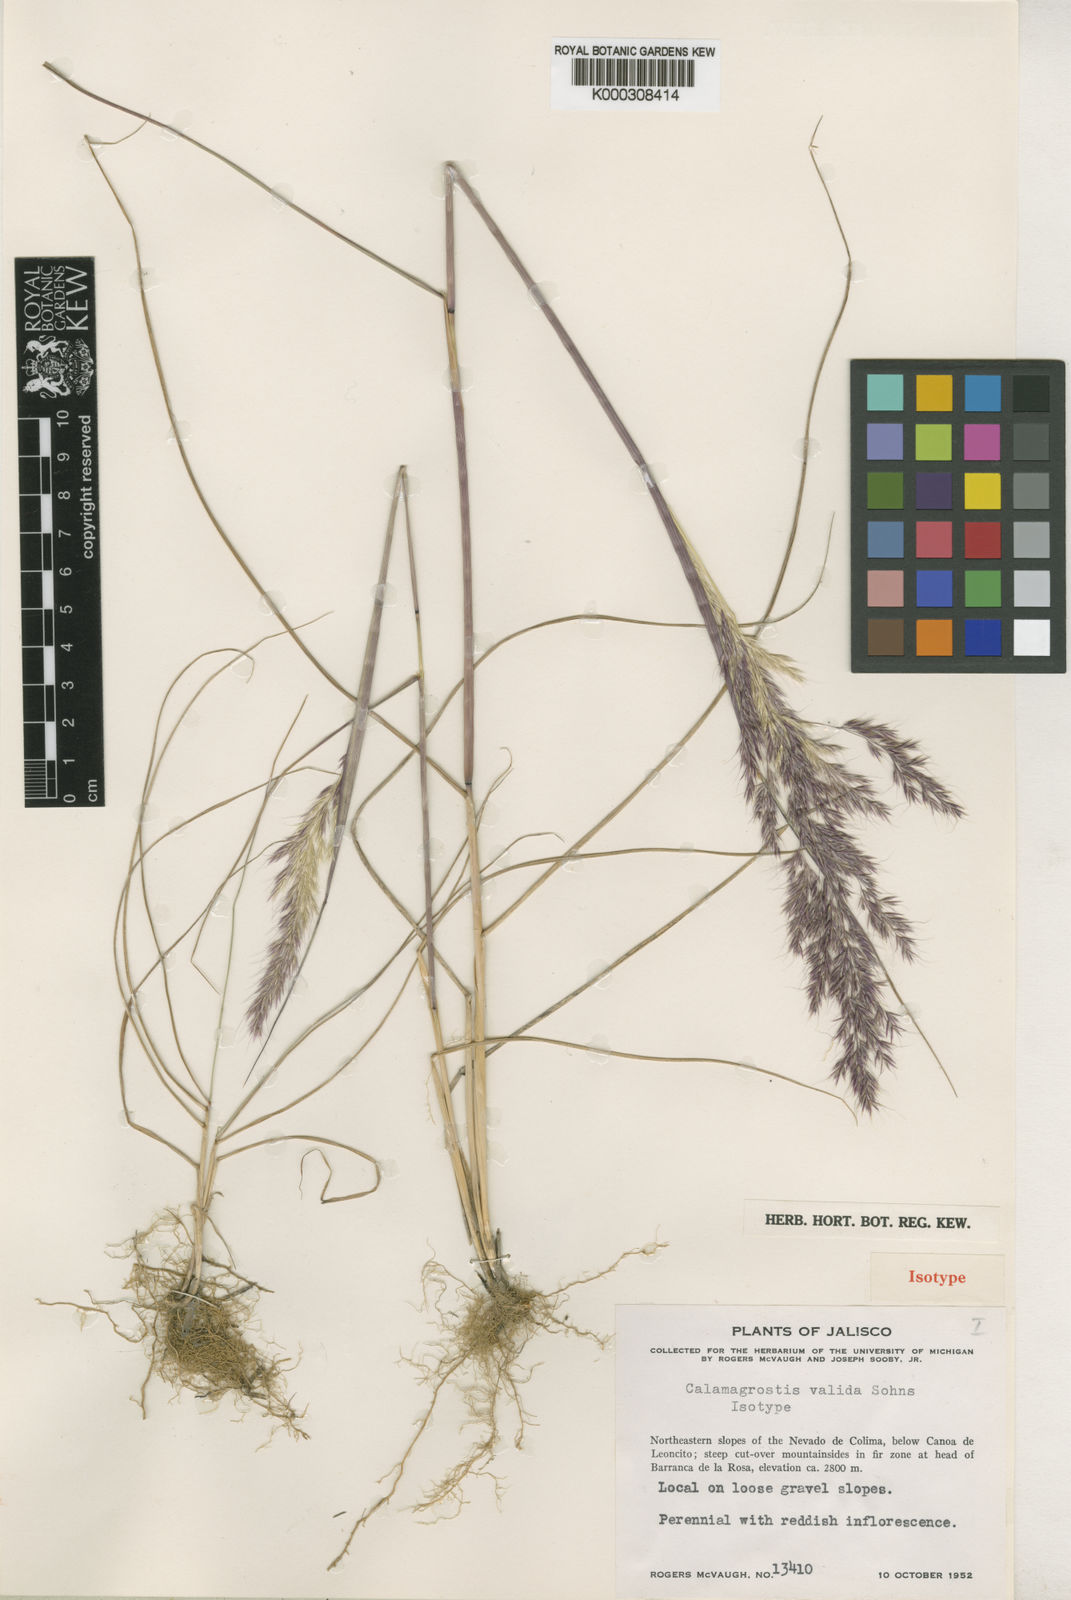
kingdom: Plantae
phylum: Tracheophyta
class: Liliopsida
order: Poales
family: Poaceae
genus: Peyritschia
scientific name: Peyritschia valida
